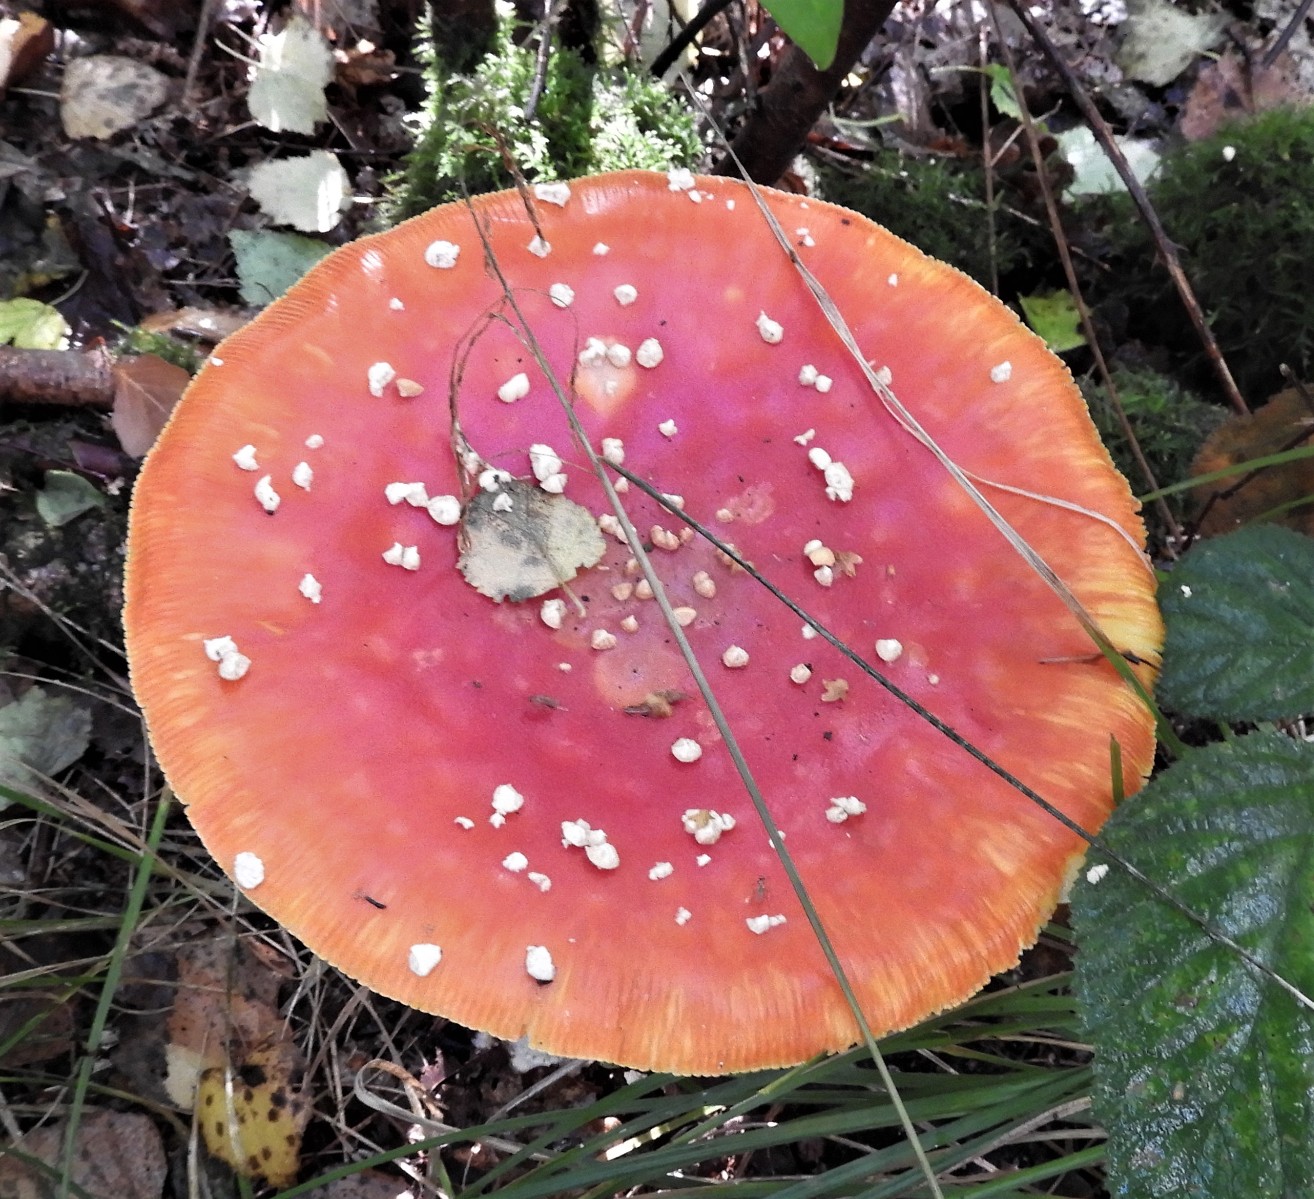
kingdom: Fungi
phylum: Basidiomycota
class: Agaricomycetes
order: Agaricales
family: Amanitaceae
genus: Amanita
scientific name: Amanita muscaria
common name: rød fluesvamp
